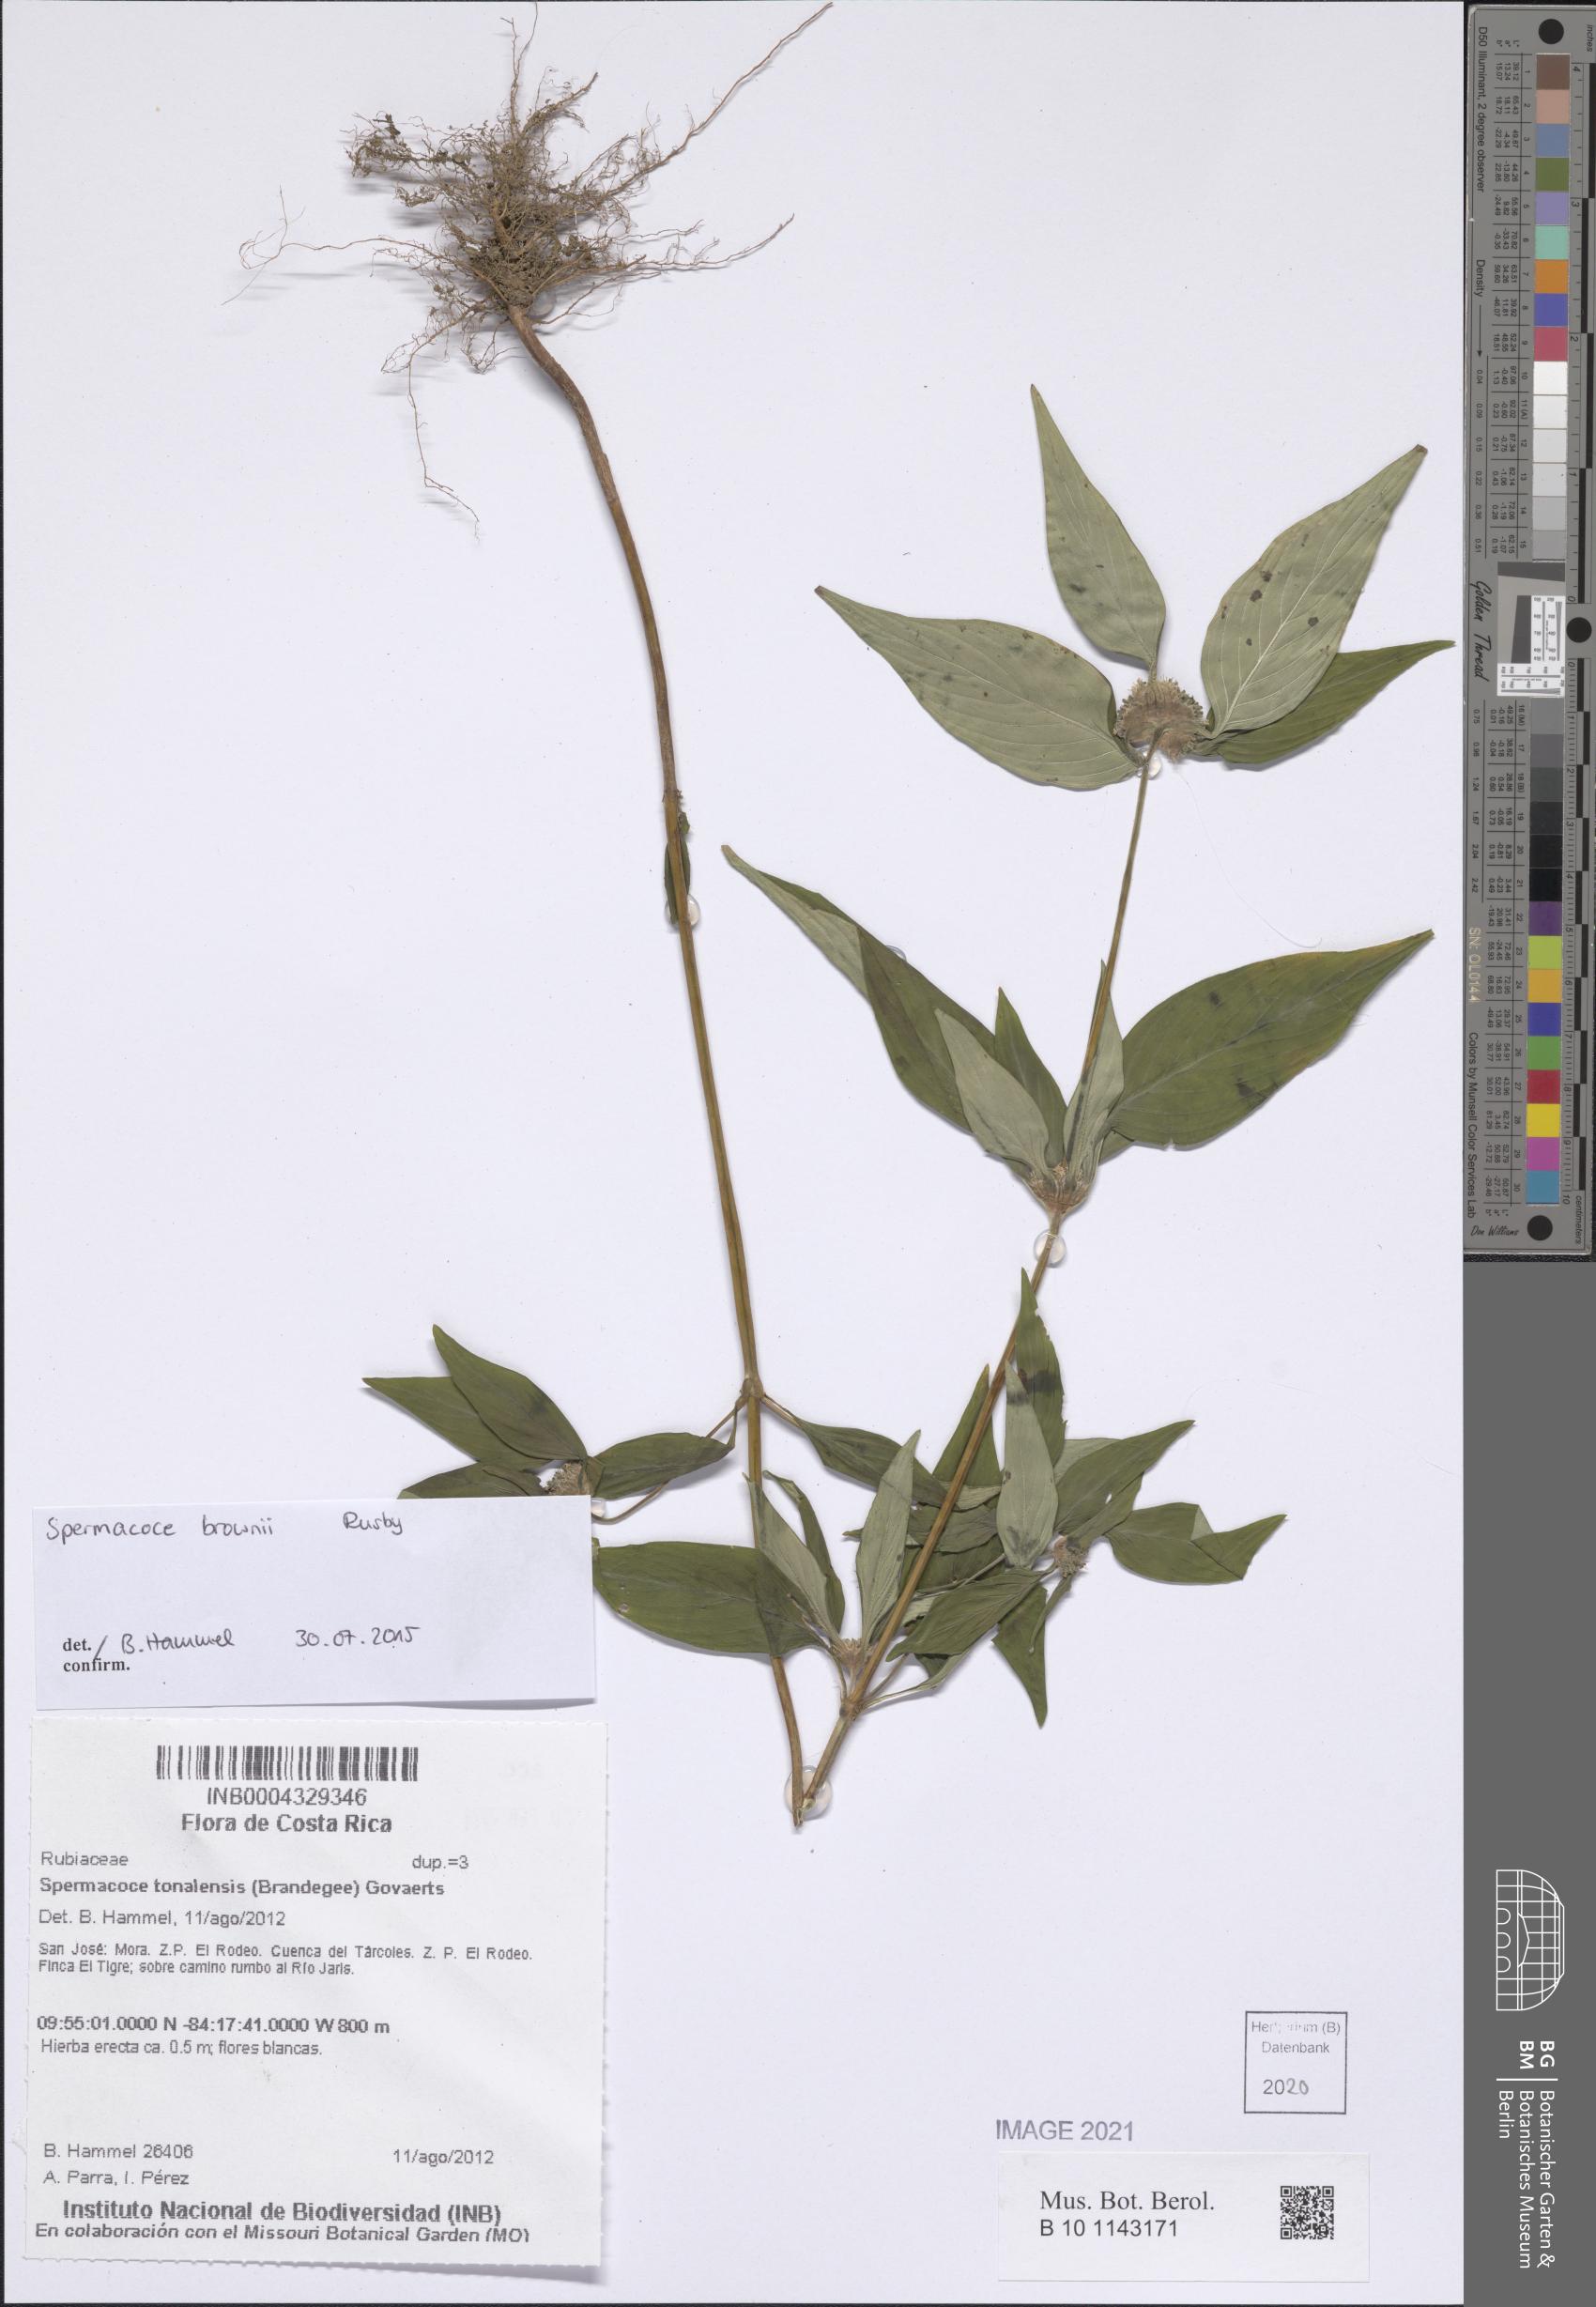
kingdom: Plantae
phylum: Tracheophyta
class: Magnoliopsida
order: Gentianales
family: Rubiaceae
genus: Spermacoce
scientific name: Spermacoce brownii
